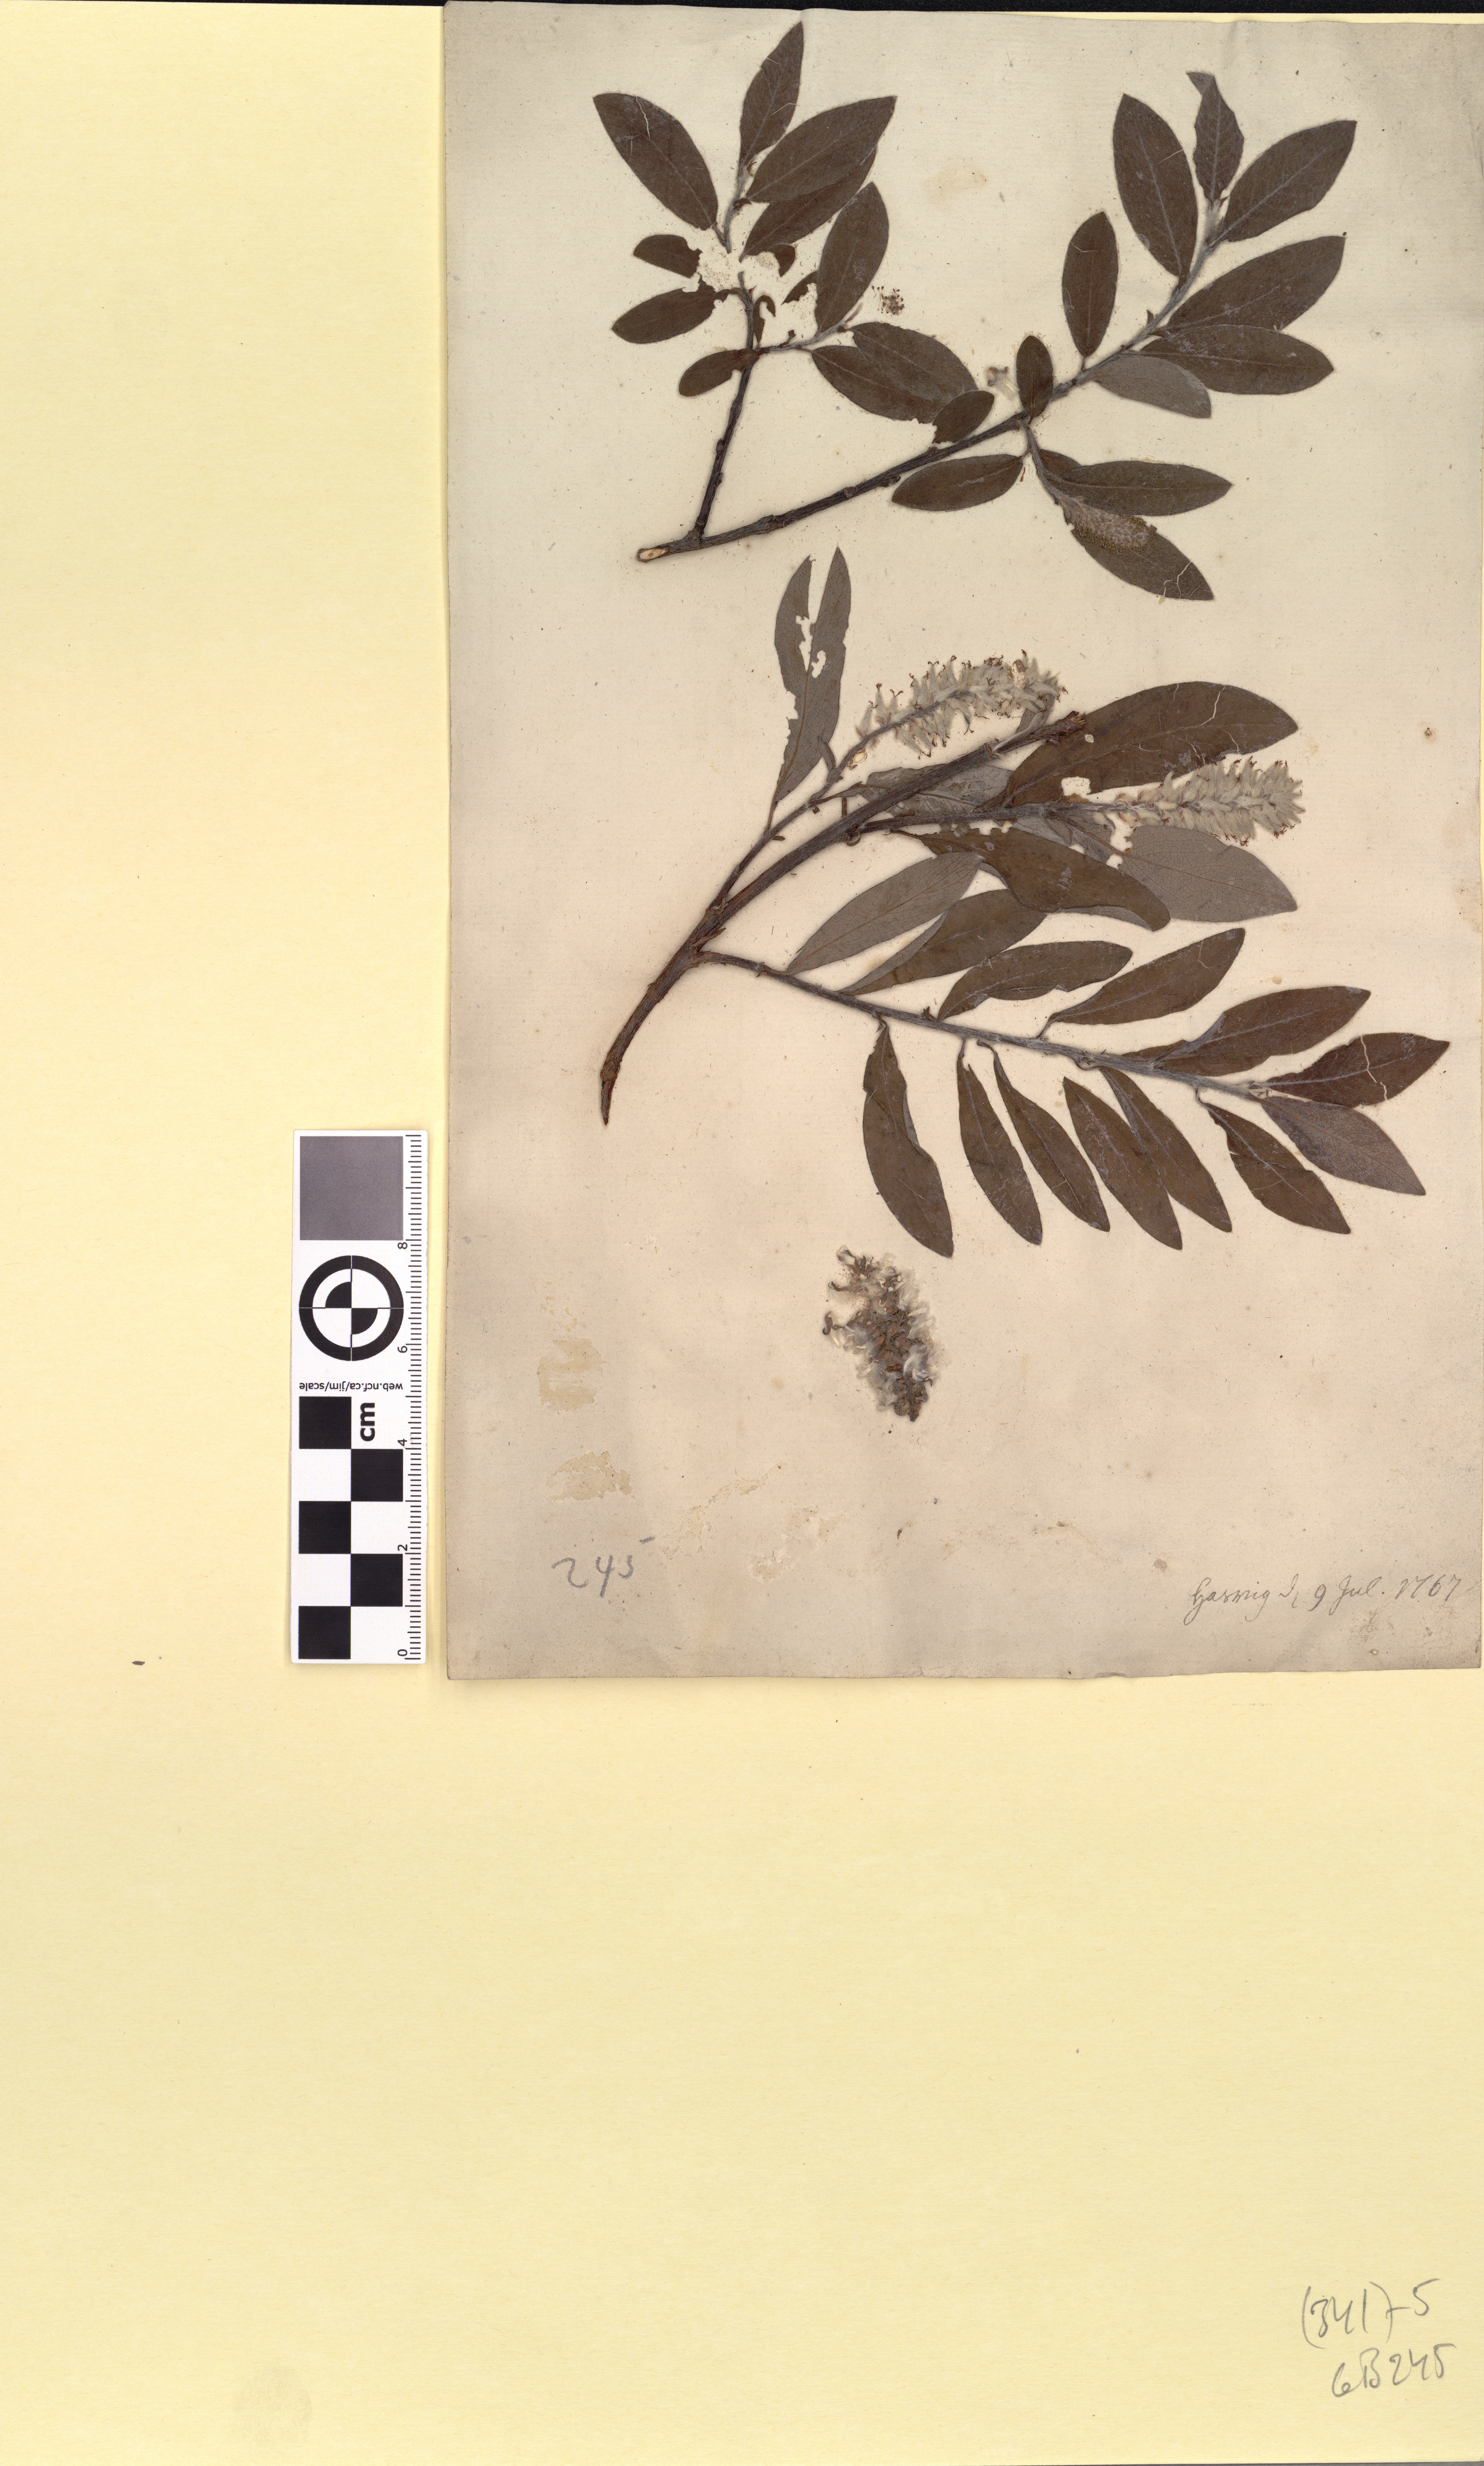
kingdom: Plantae
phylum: Tracheophyta
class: Magnoliopsida
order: Malpighiales
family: Salicaceae
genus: Salix
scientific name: Salix glauca
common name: Glaucous willow
